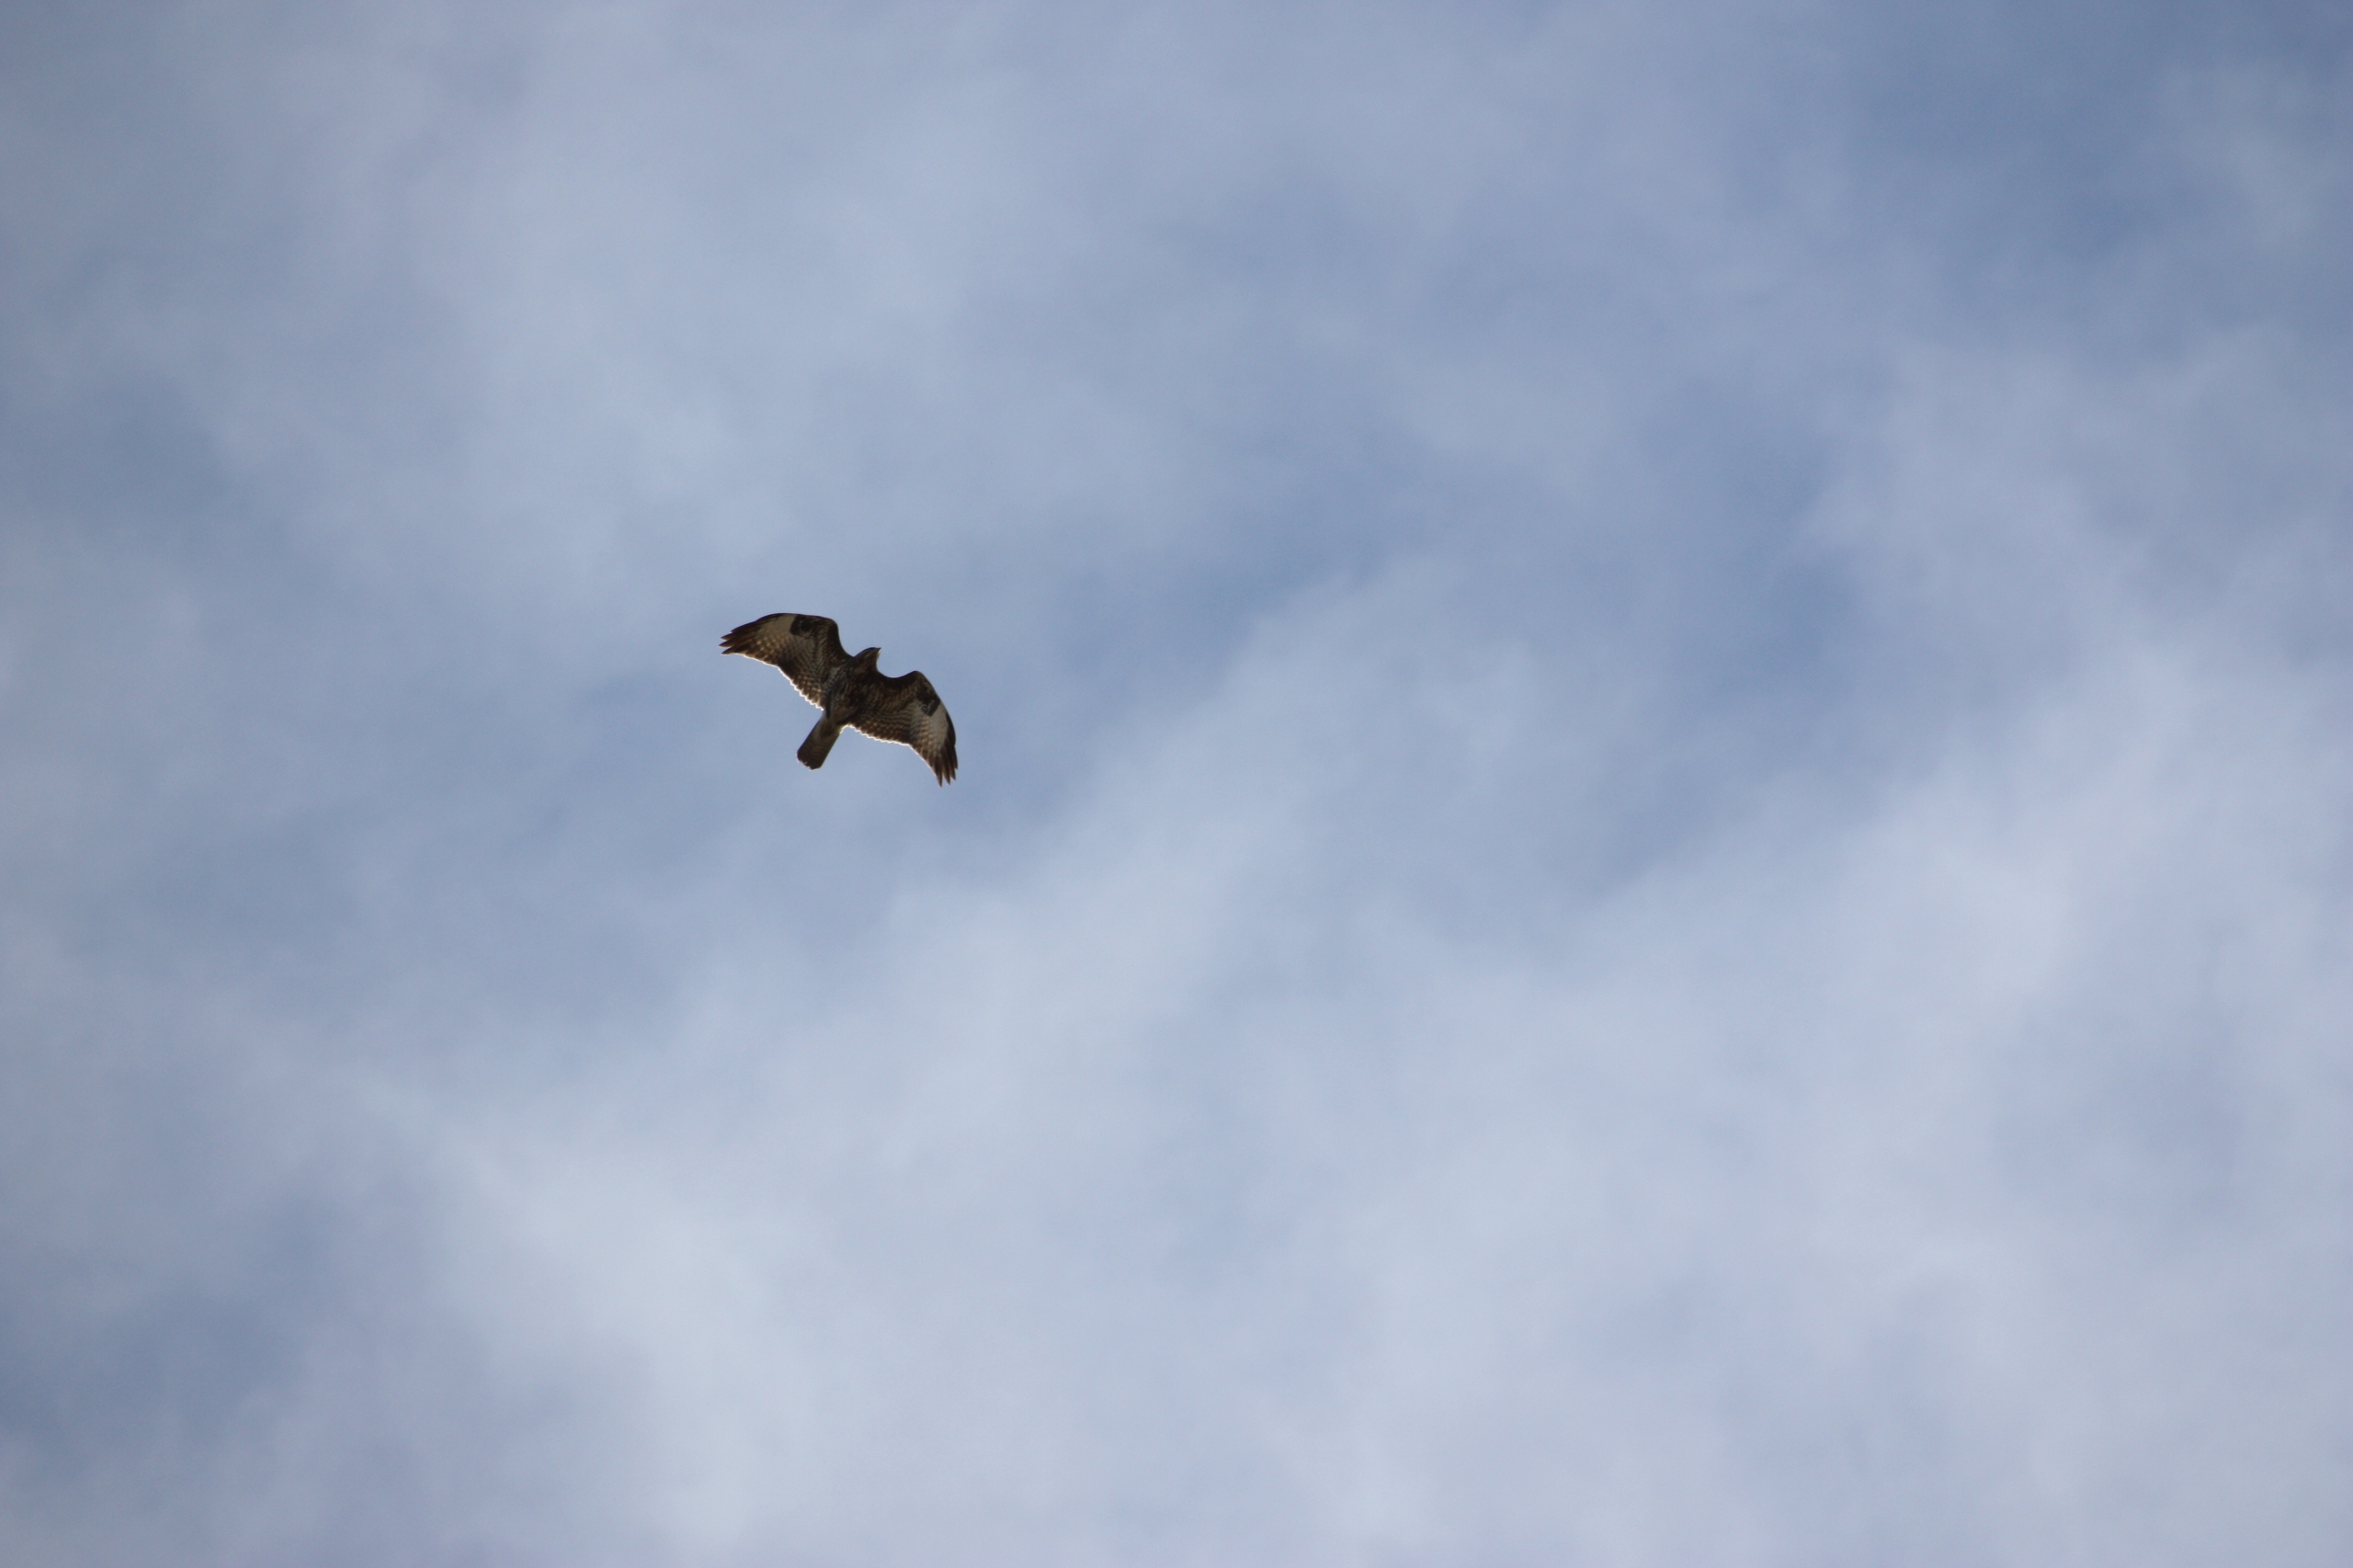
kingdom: Animalia
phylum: Chordata
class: Aves
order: Accipitriformes
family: Accipitridae
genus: Buteo
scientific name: Buteo buteo
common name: Musvåge
